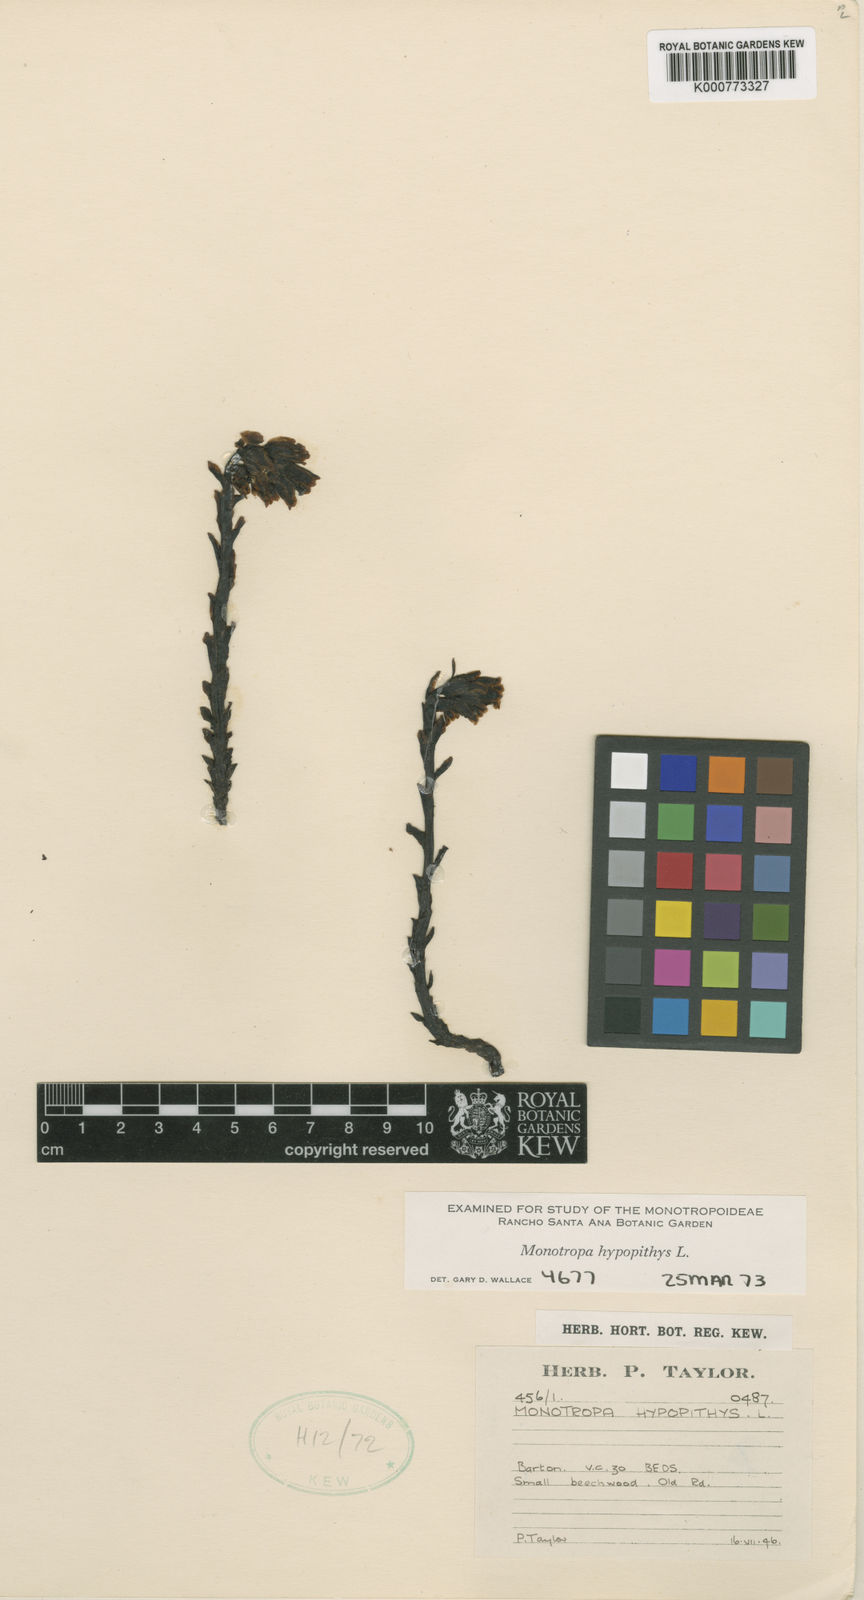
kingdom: Plantae
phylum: Tracheophyta
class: Magnoliopsida
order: Ericales
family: Ericaceae
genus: Monotropa
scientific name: Monotropa
